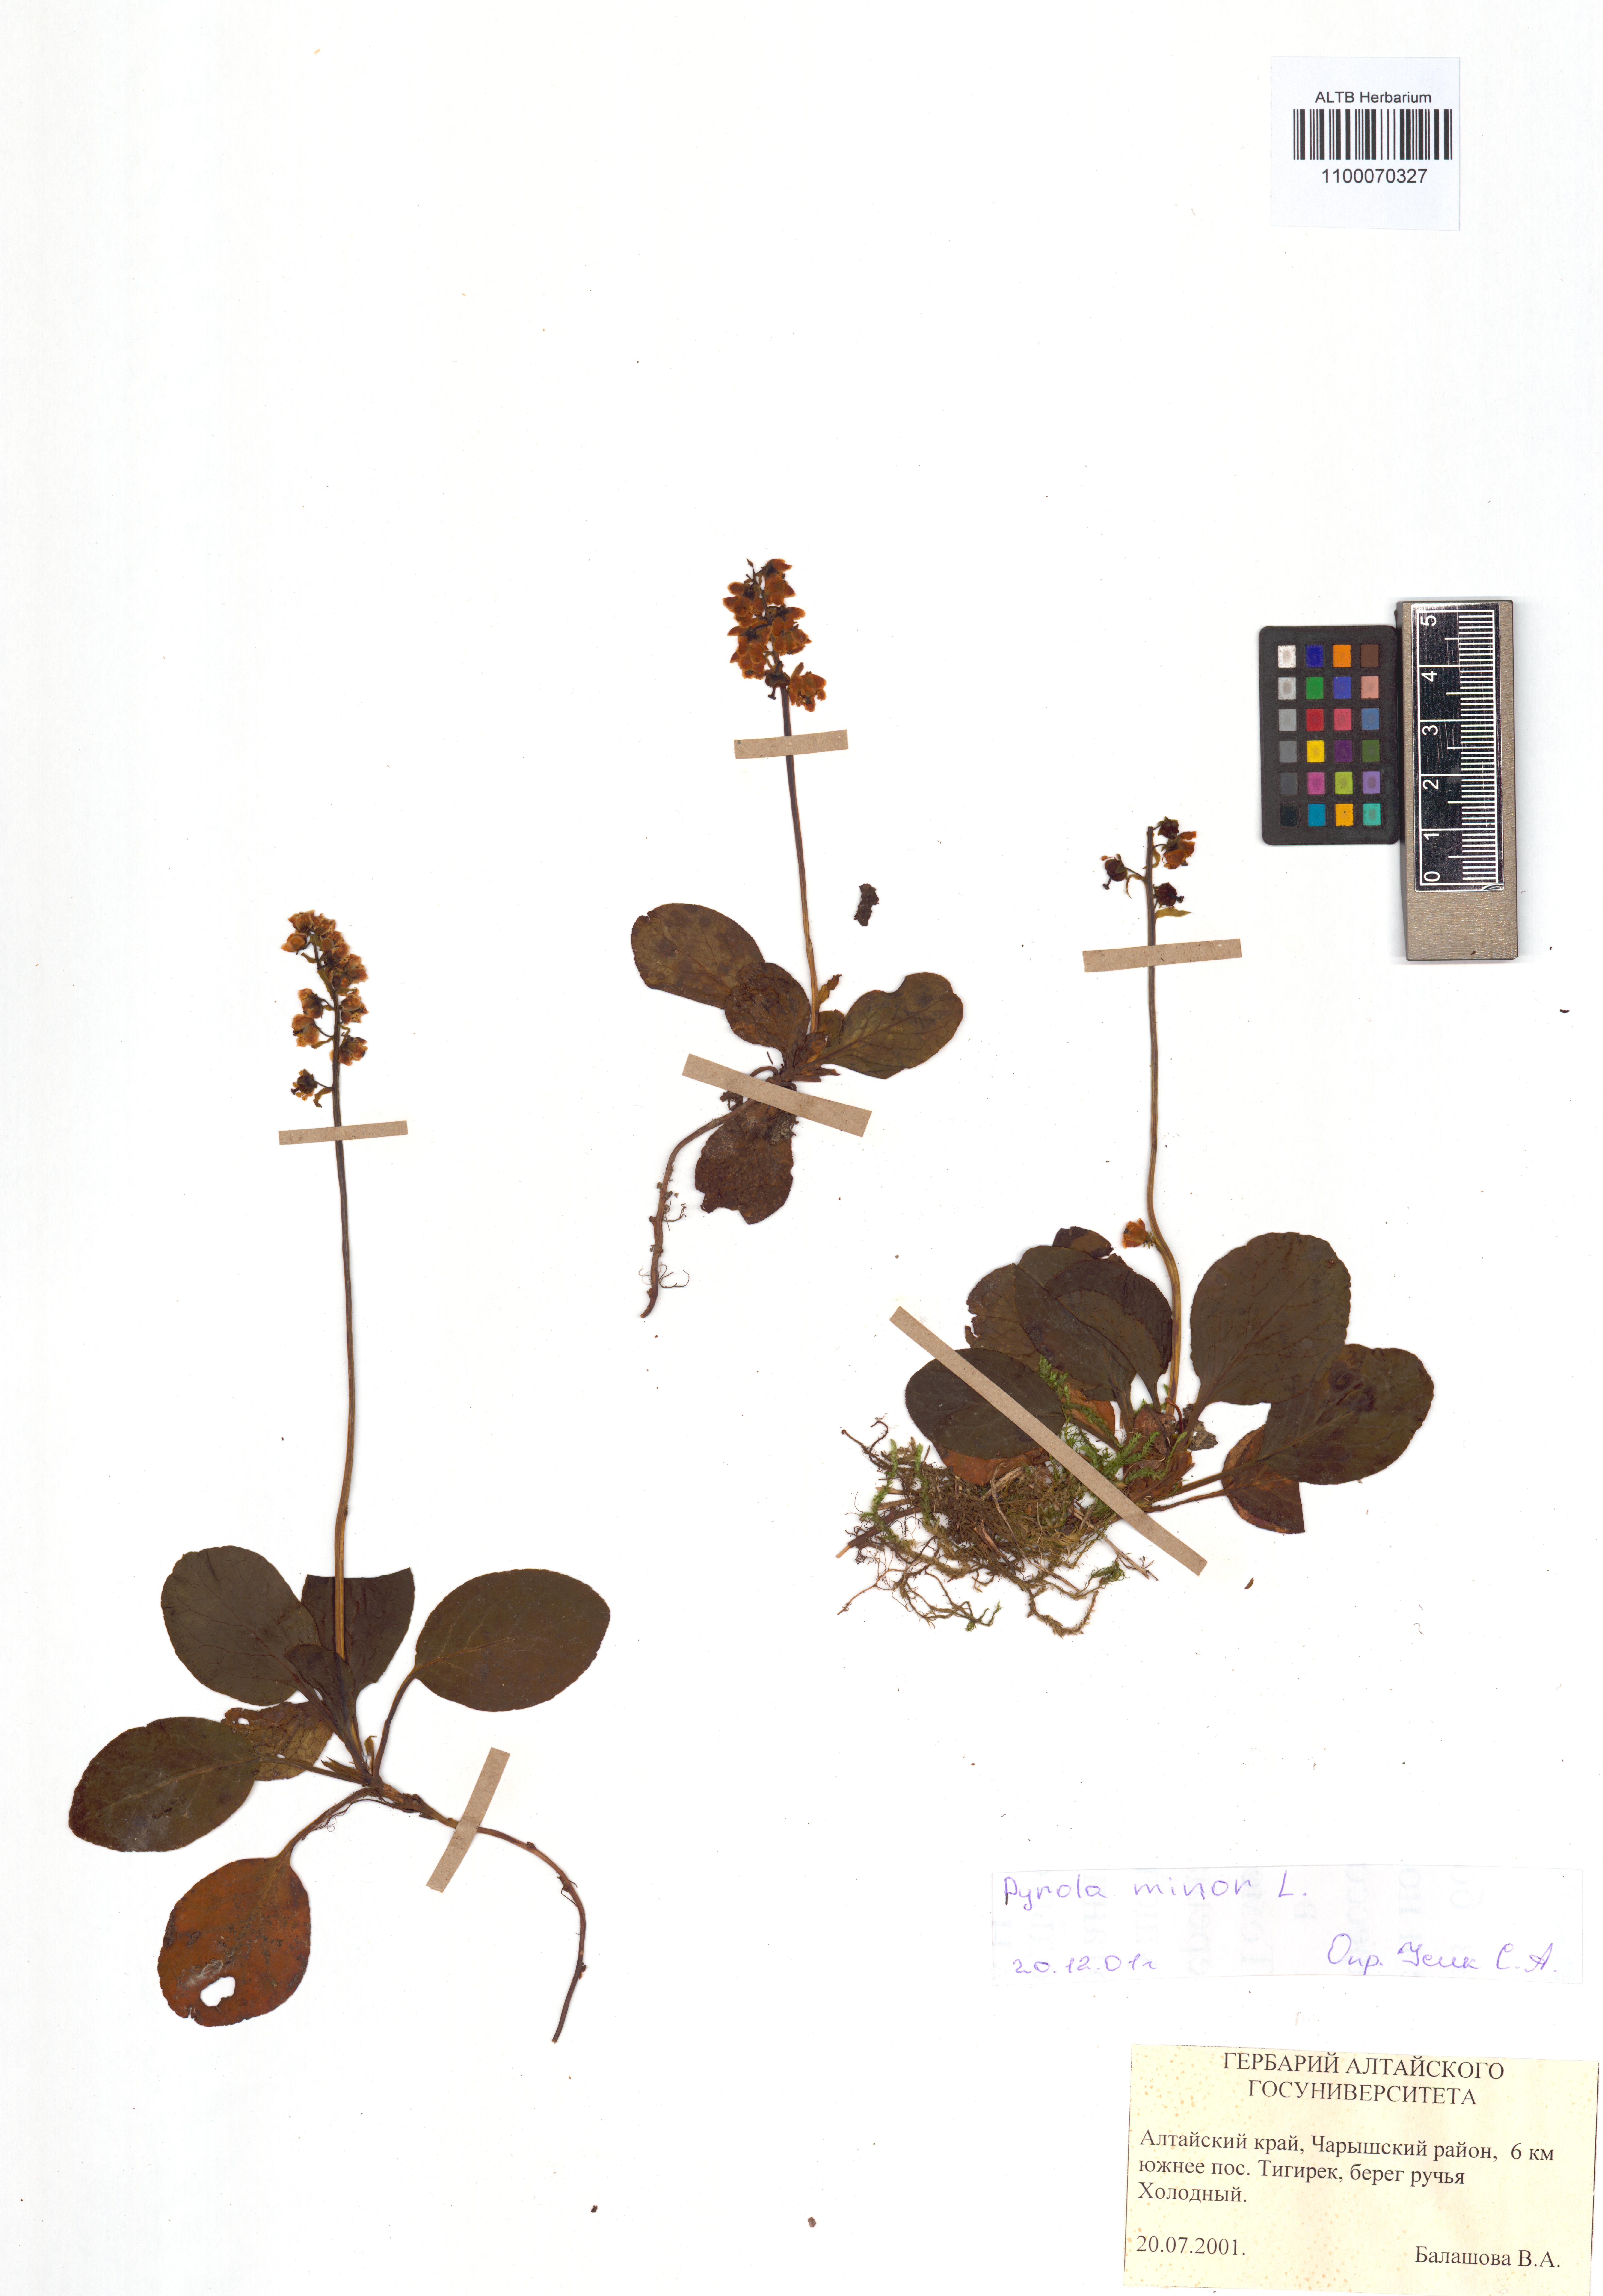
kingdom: Plantae
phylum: Tracheophyta
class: Magnoliopsida
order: Ericales
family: Ericaceae
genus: Pyrola
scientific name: Pyrola minor
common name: Common wintergreen
